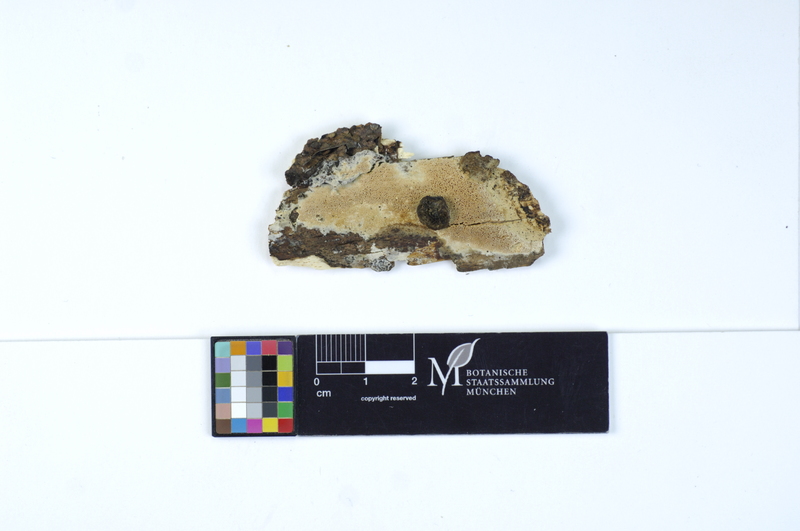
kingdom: Plantae
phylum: Tracheophyta
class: Magnoliopsida
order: Fagales
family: Fagaceae
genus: Fagus
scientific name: Fagus sylvatica
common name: Beech
